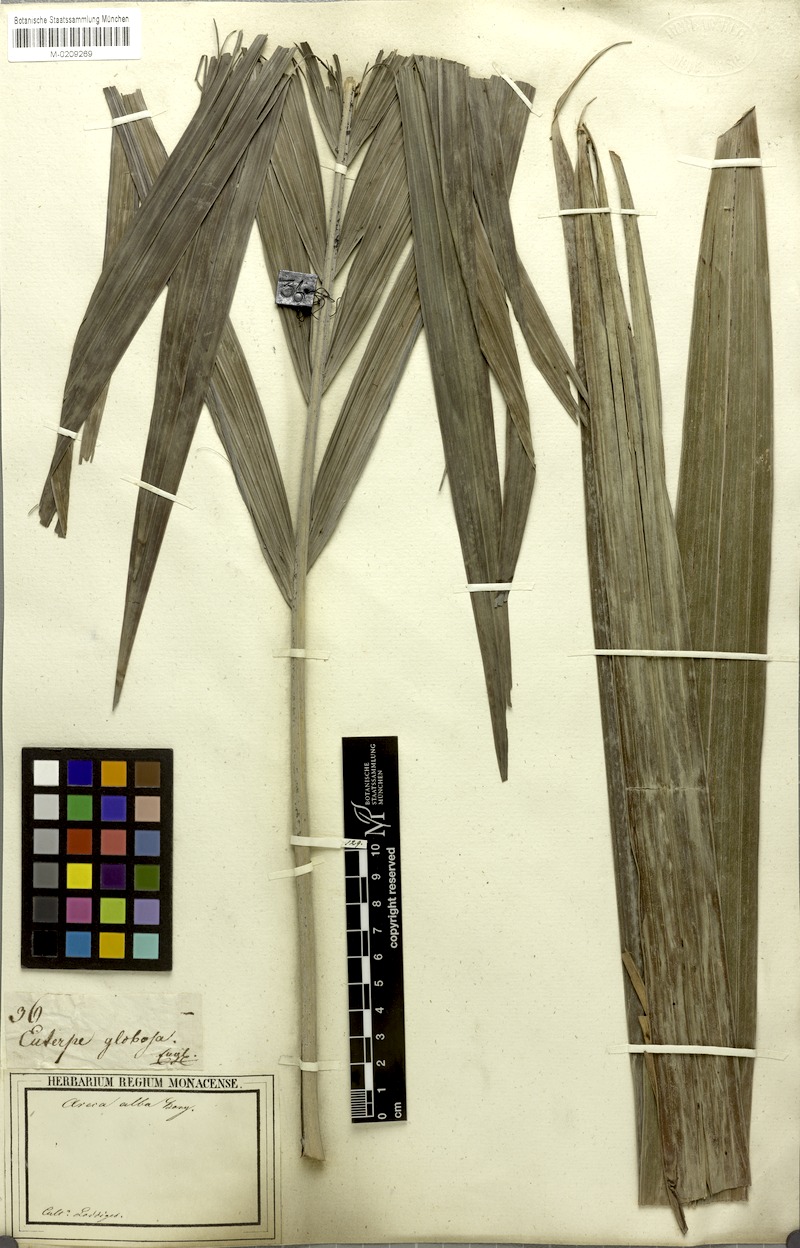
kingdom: Plantae
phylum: Tracheophyta
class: Liliopsida
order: Arecales
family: Arecaceae
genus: Dictyosperma
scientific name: Dictyosperma album
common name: Common princess palm
